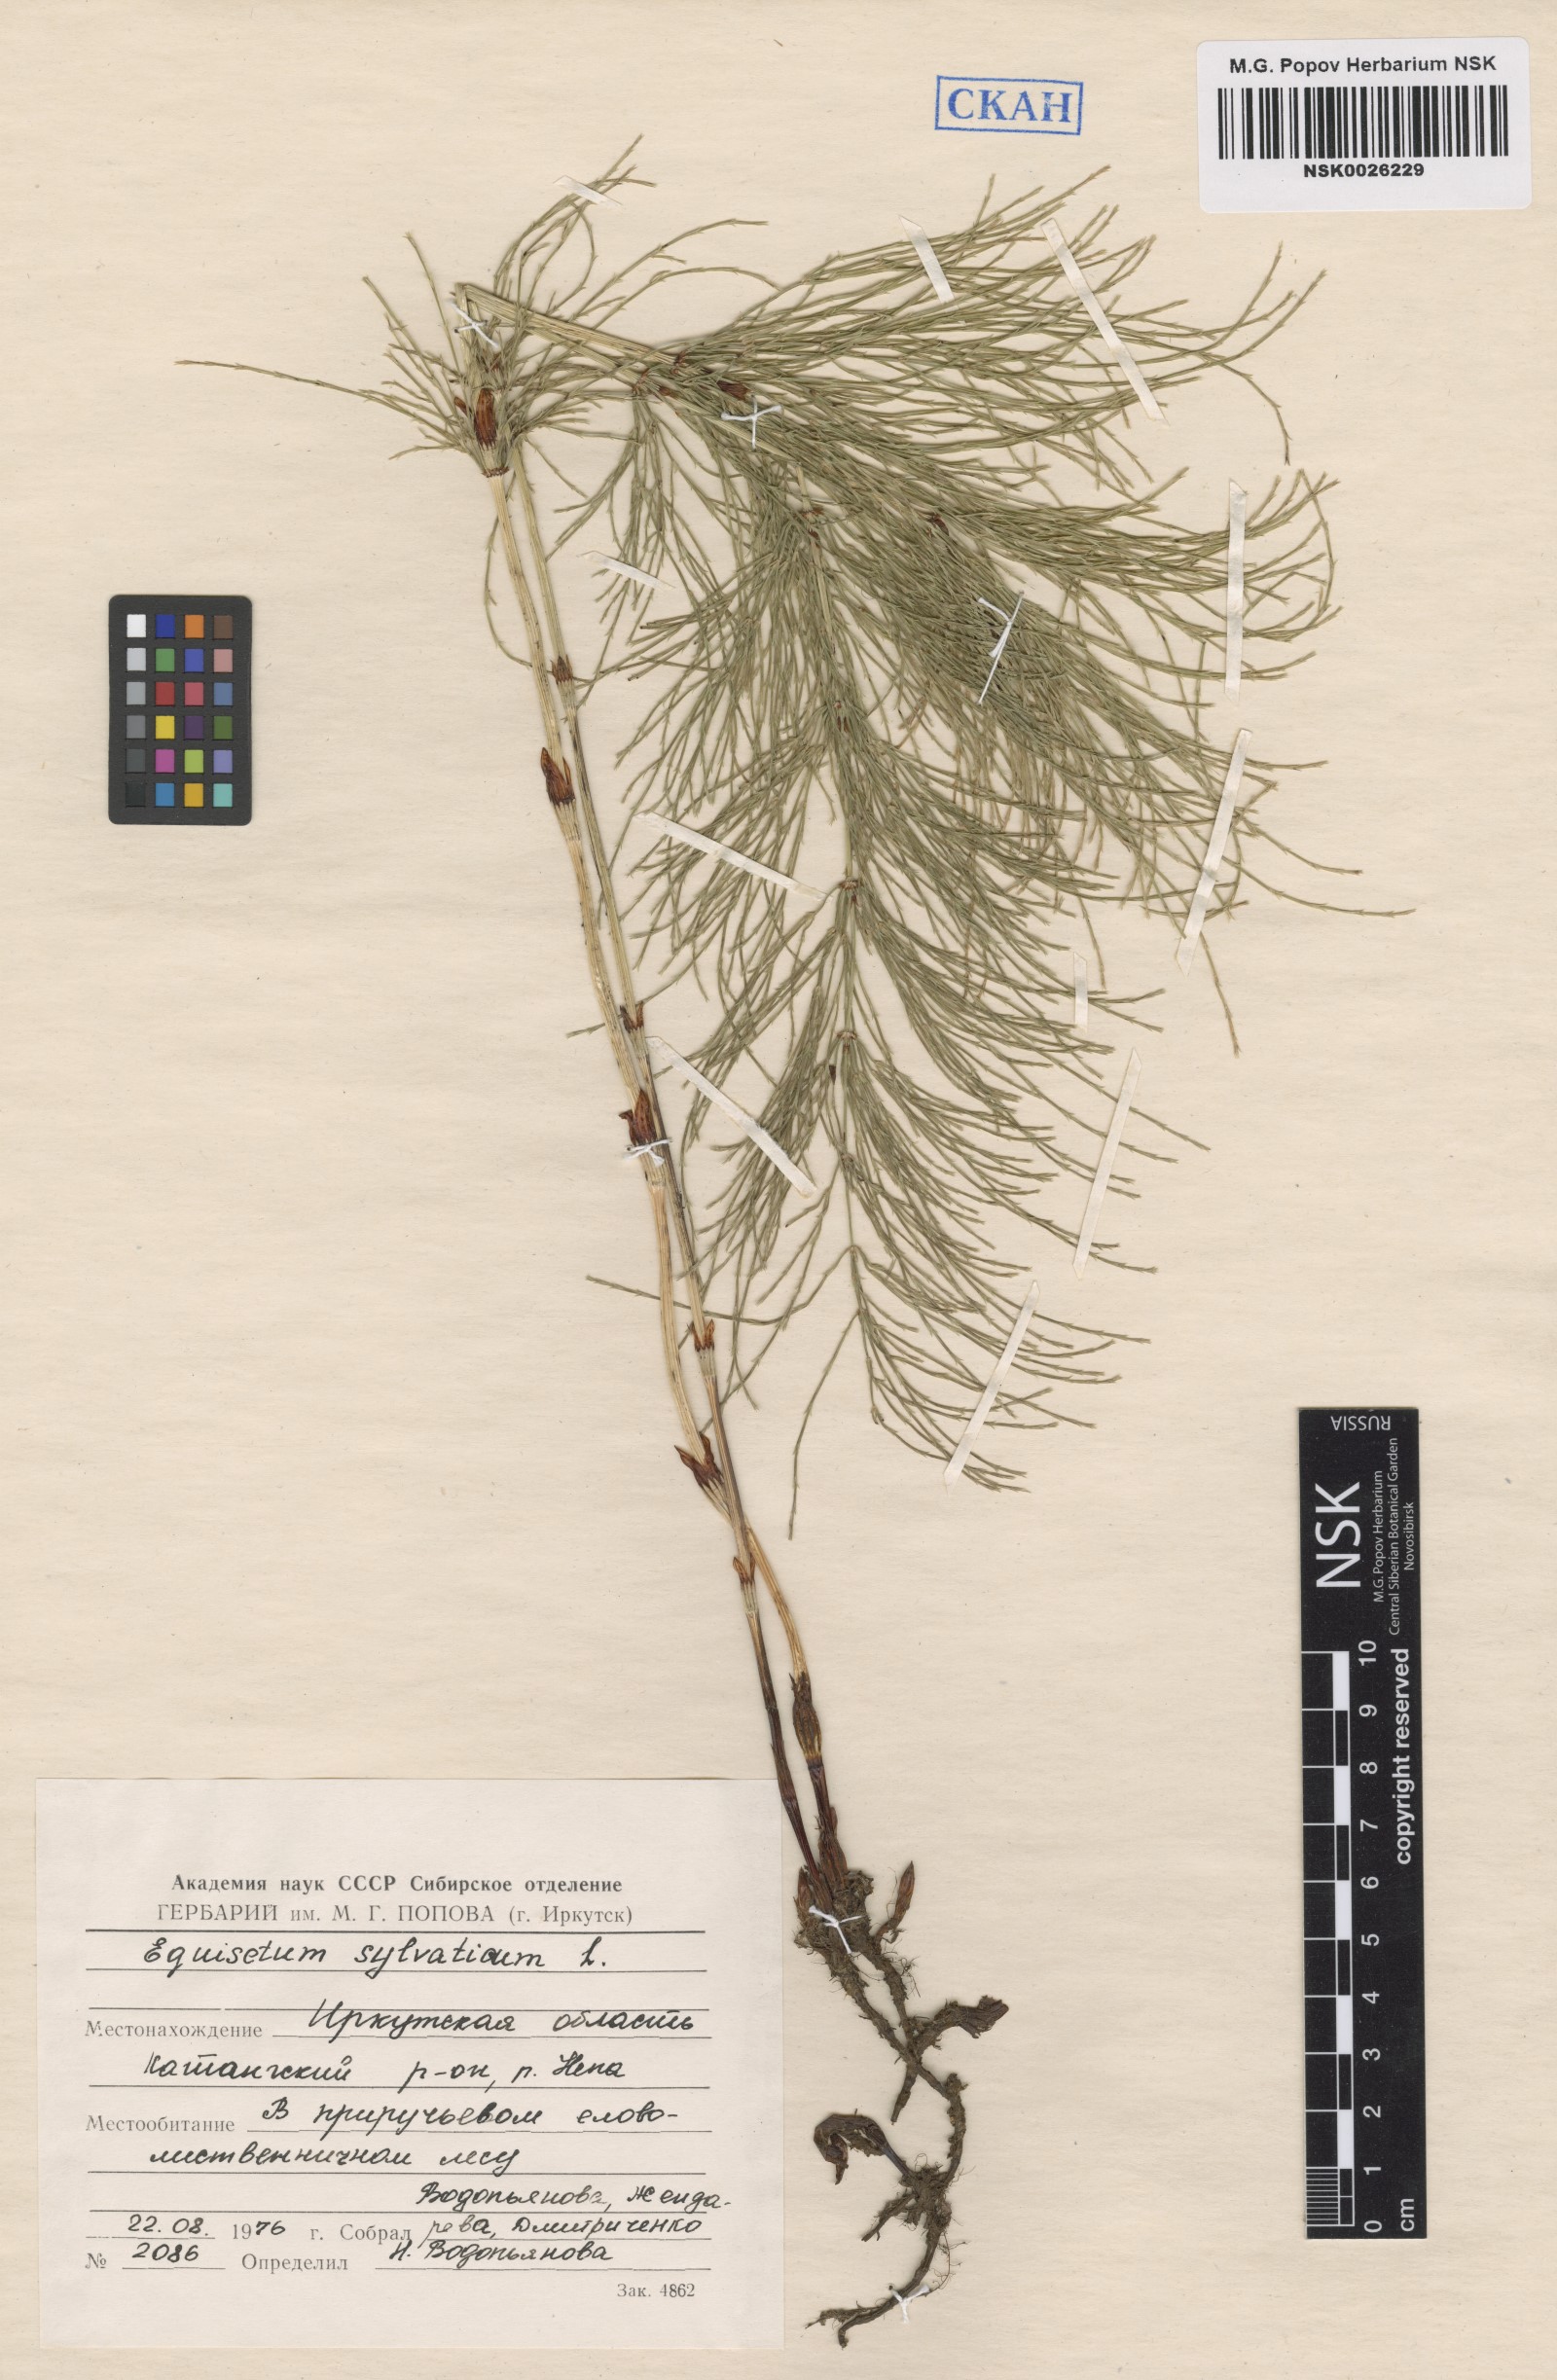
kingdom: Plantae
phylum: Tracheophyta
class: Polypodiopsida
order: Equisetales
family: Equisetaceae
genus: Equisetum
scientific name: Equisetum sylvaticum
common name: Wood horsetail
